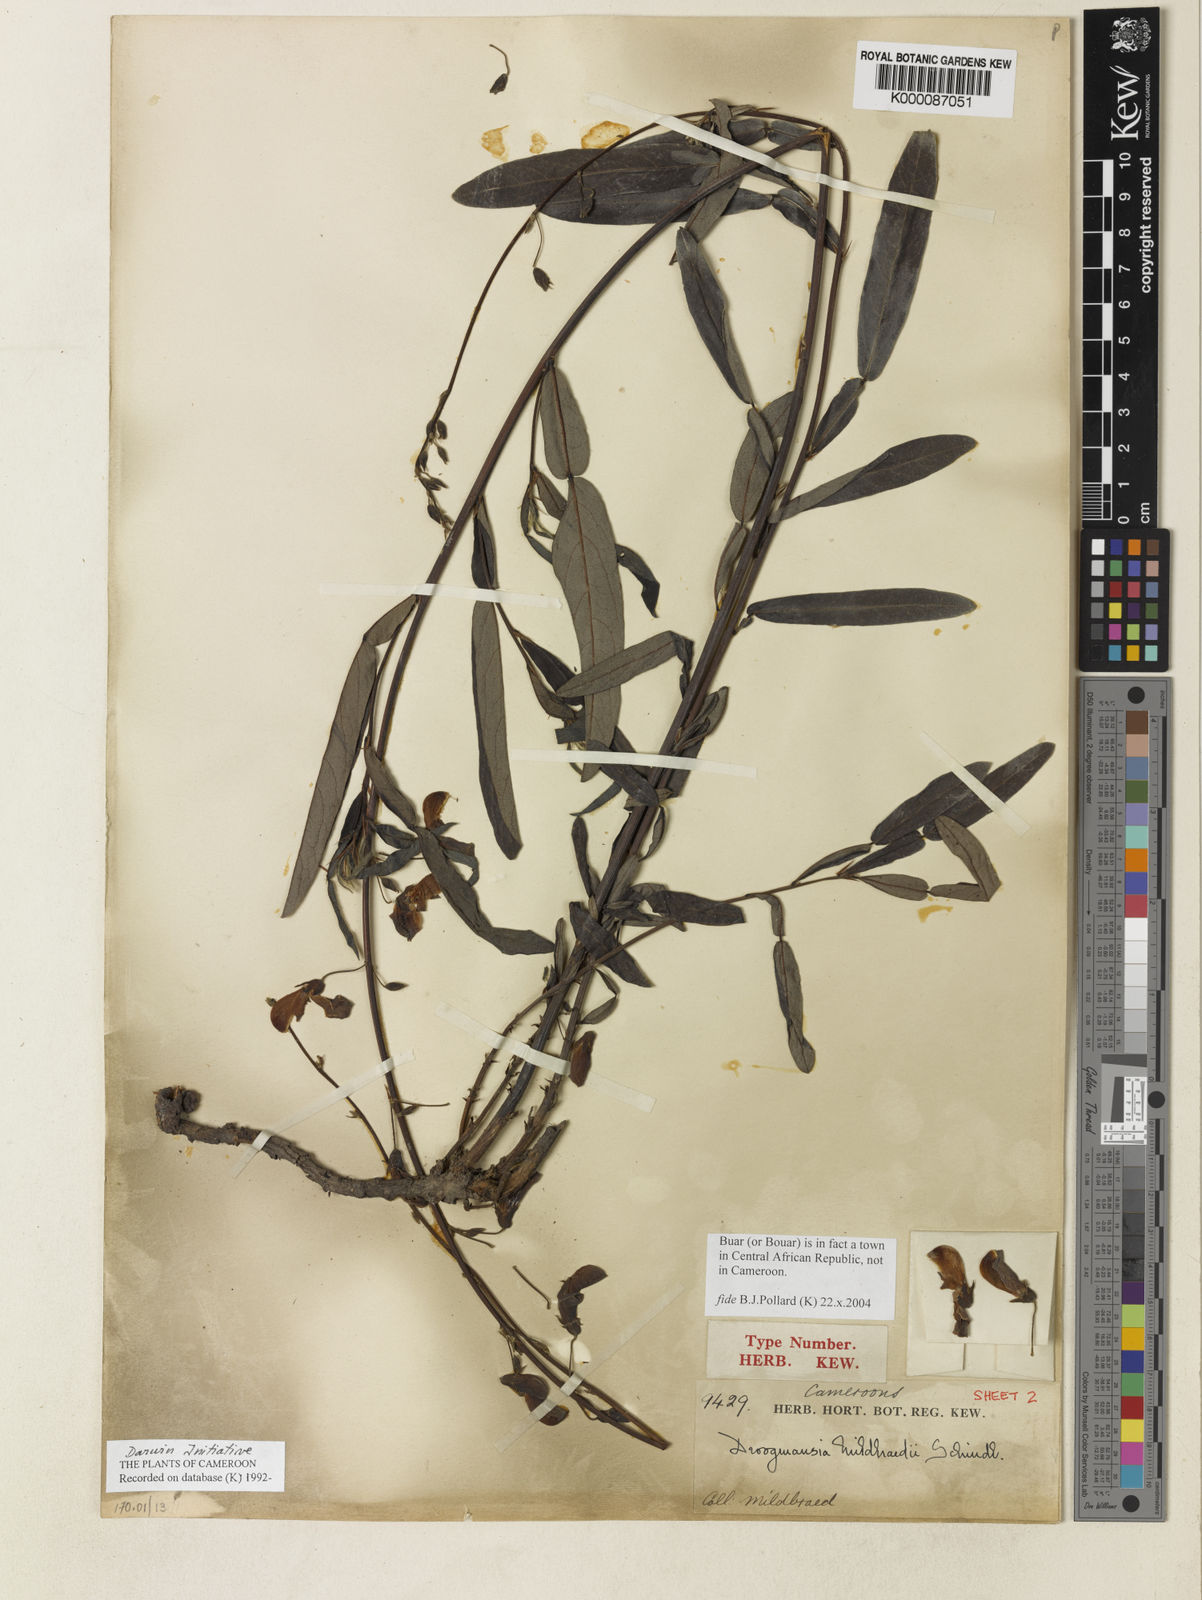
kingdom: Plantae
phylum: Tracheophyta
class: Magnoliopsida
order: Fabales
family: Fabaceae
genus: Droogmansia
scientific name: Droogmansia mildbraedii
